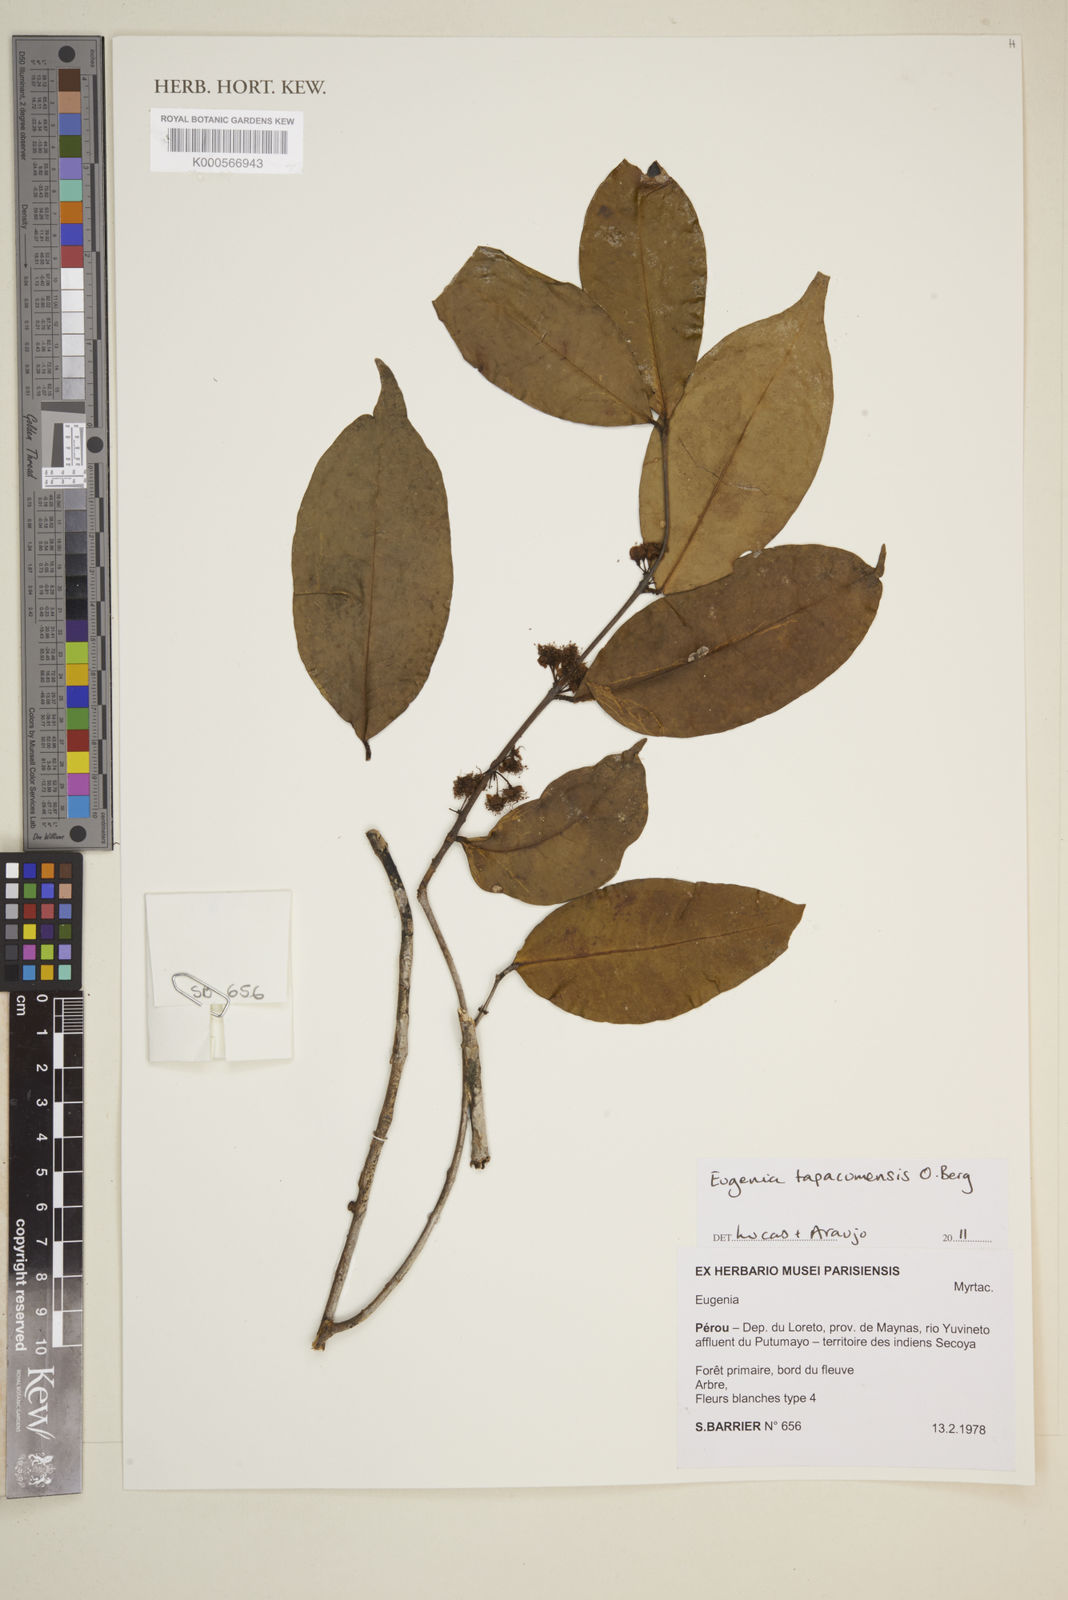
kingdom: Plantae
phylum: Tracheophyta
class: Magnoliopsida
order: Myrtales
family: Myrtaceae
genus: Eugenia
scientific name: Eugenia tapacumensis
